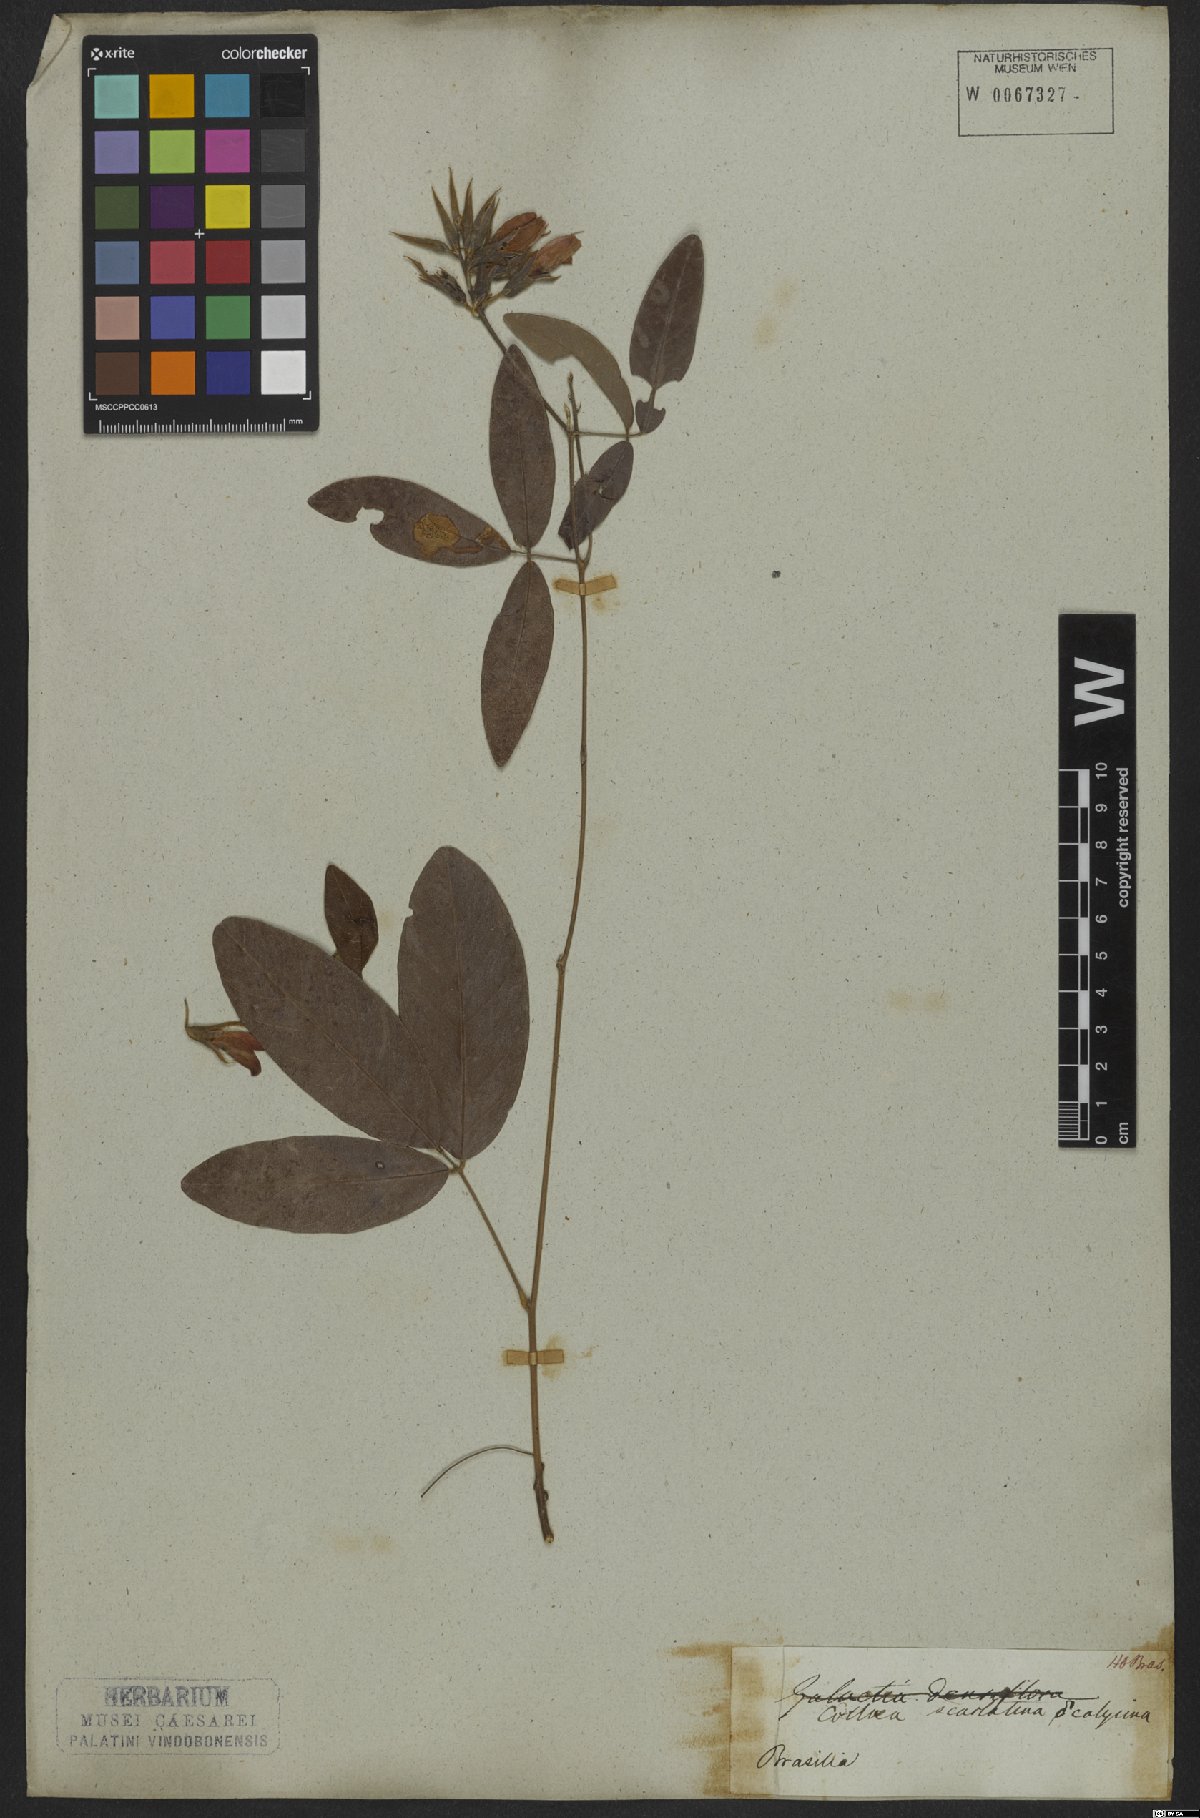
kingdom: Plantae
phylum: Tracheophyta
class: Magnoliopsida
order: Fabales
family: Fabaceae
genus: Betencourtia
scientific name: Betencourtia scarlatina
